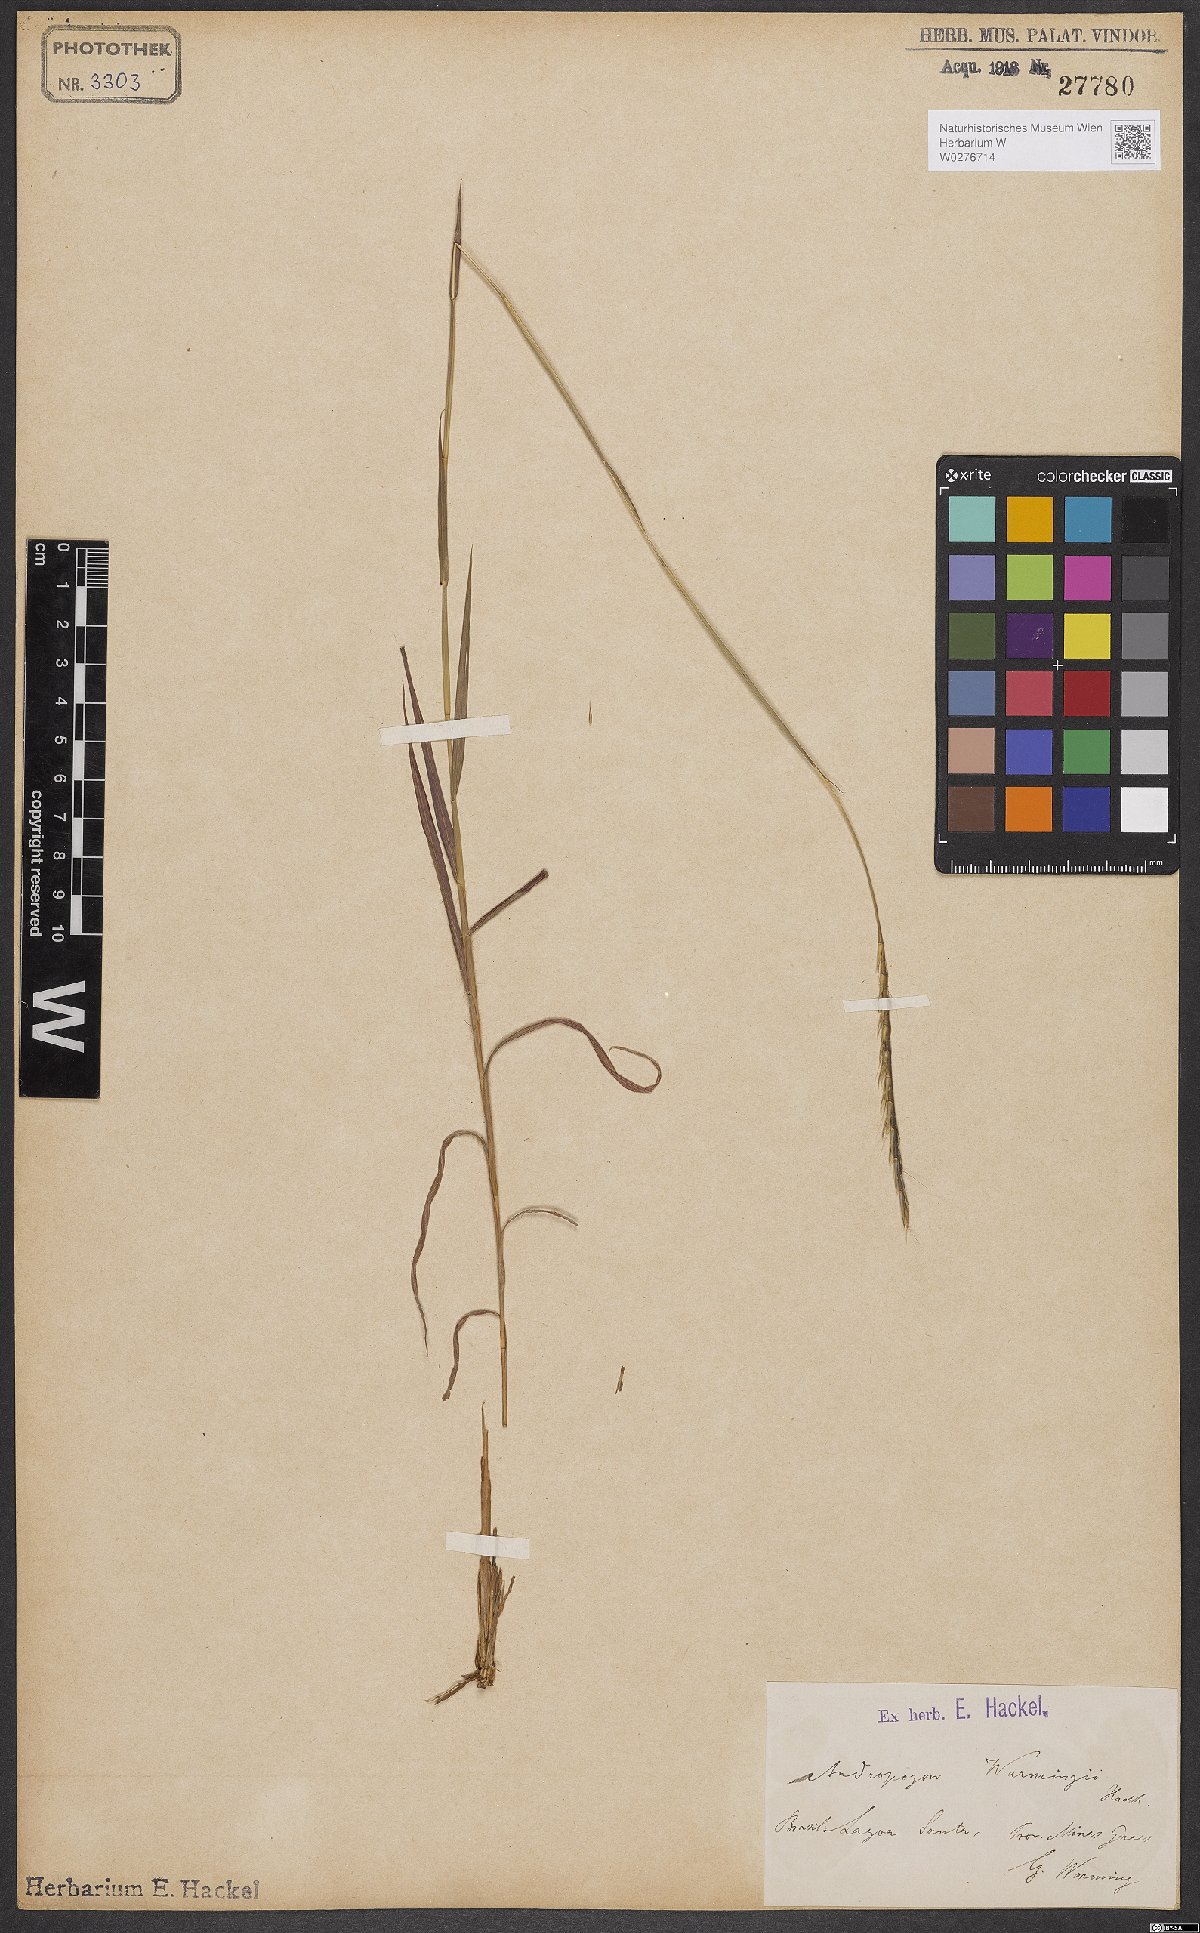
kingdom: Plantae
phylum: Tracheophyta
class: Liliopsida
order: Poales
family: Poaceae
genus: Andropogon
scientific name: Andropogon
